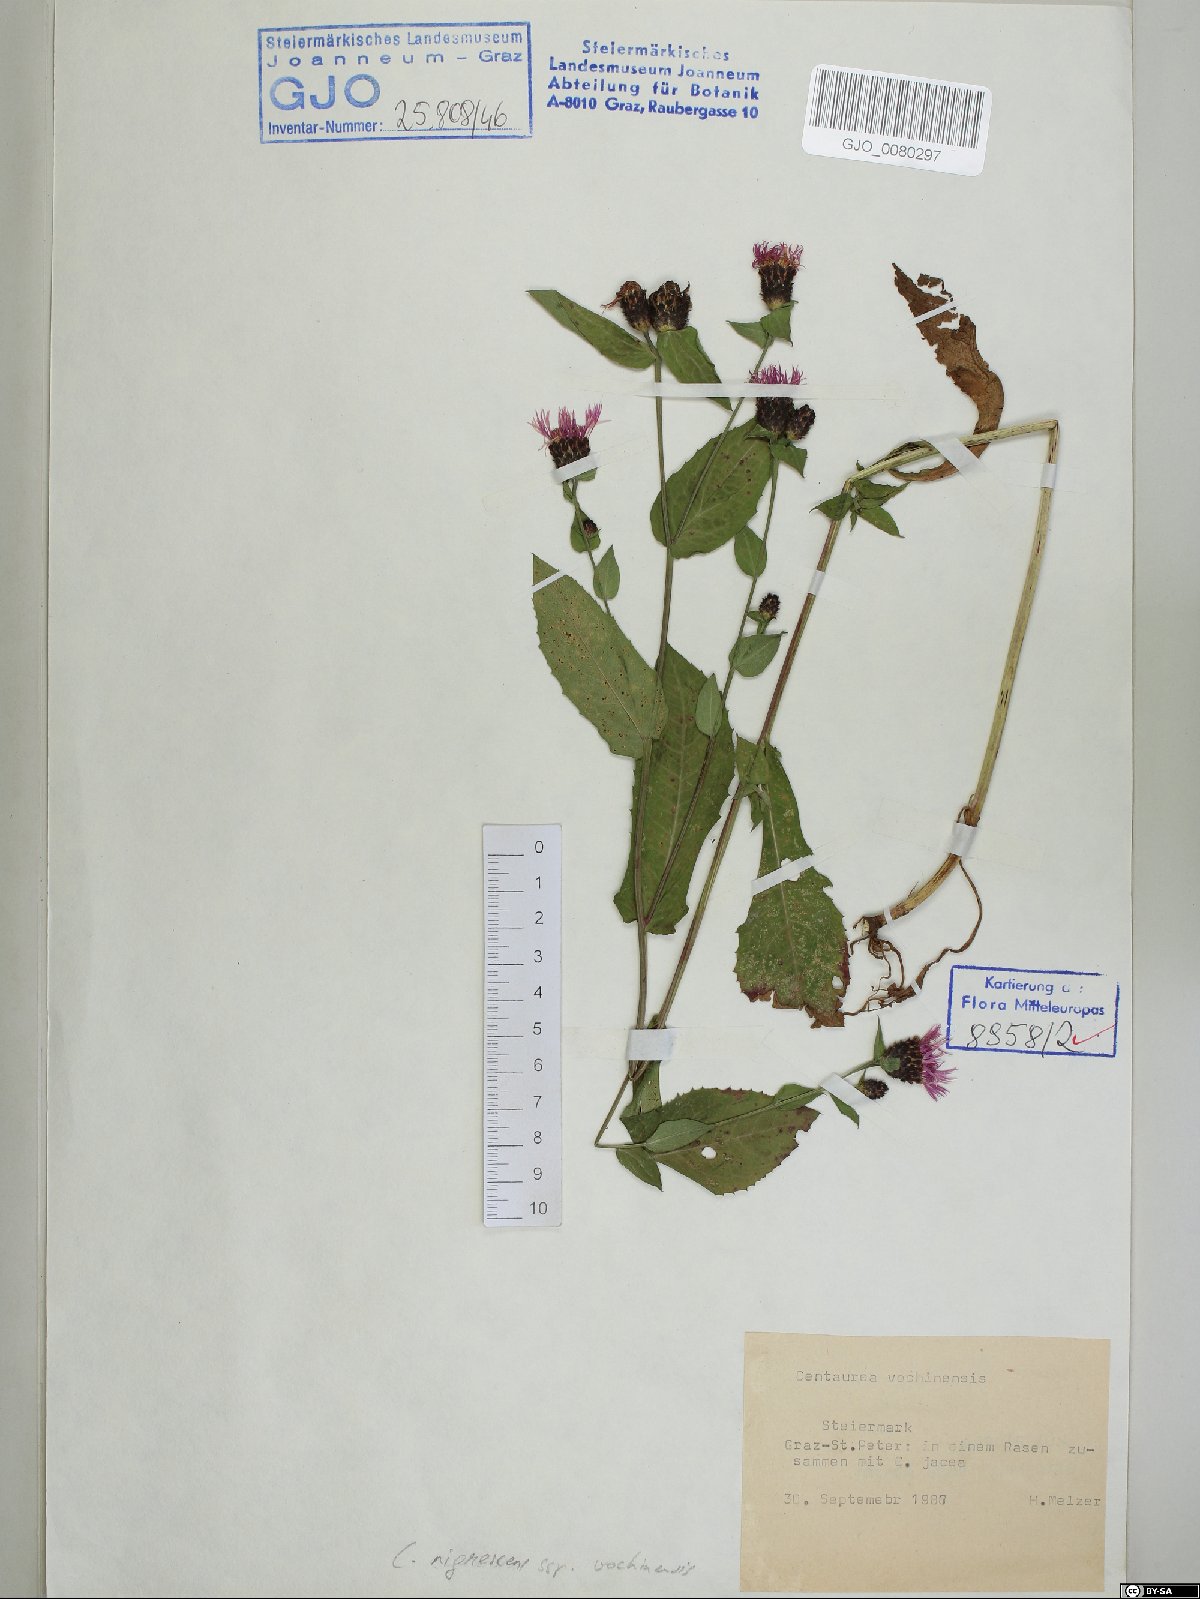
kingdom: Plantae
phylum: Tracheophyta
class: Magnoliopsida
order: Asterales
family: Asteraceae
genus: Centaurea
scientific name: Centaurea carniolica
